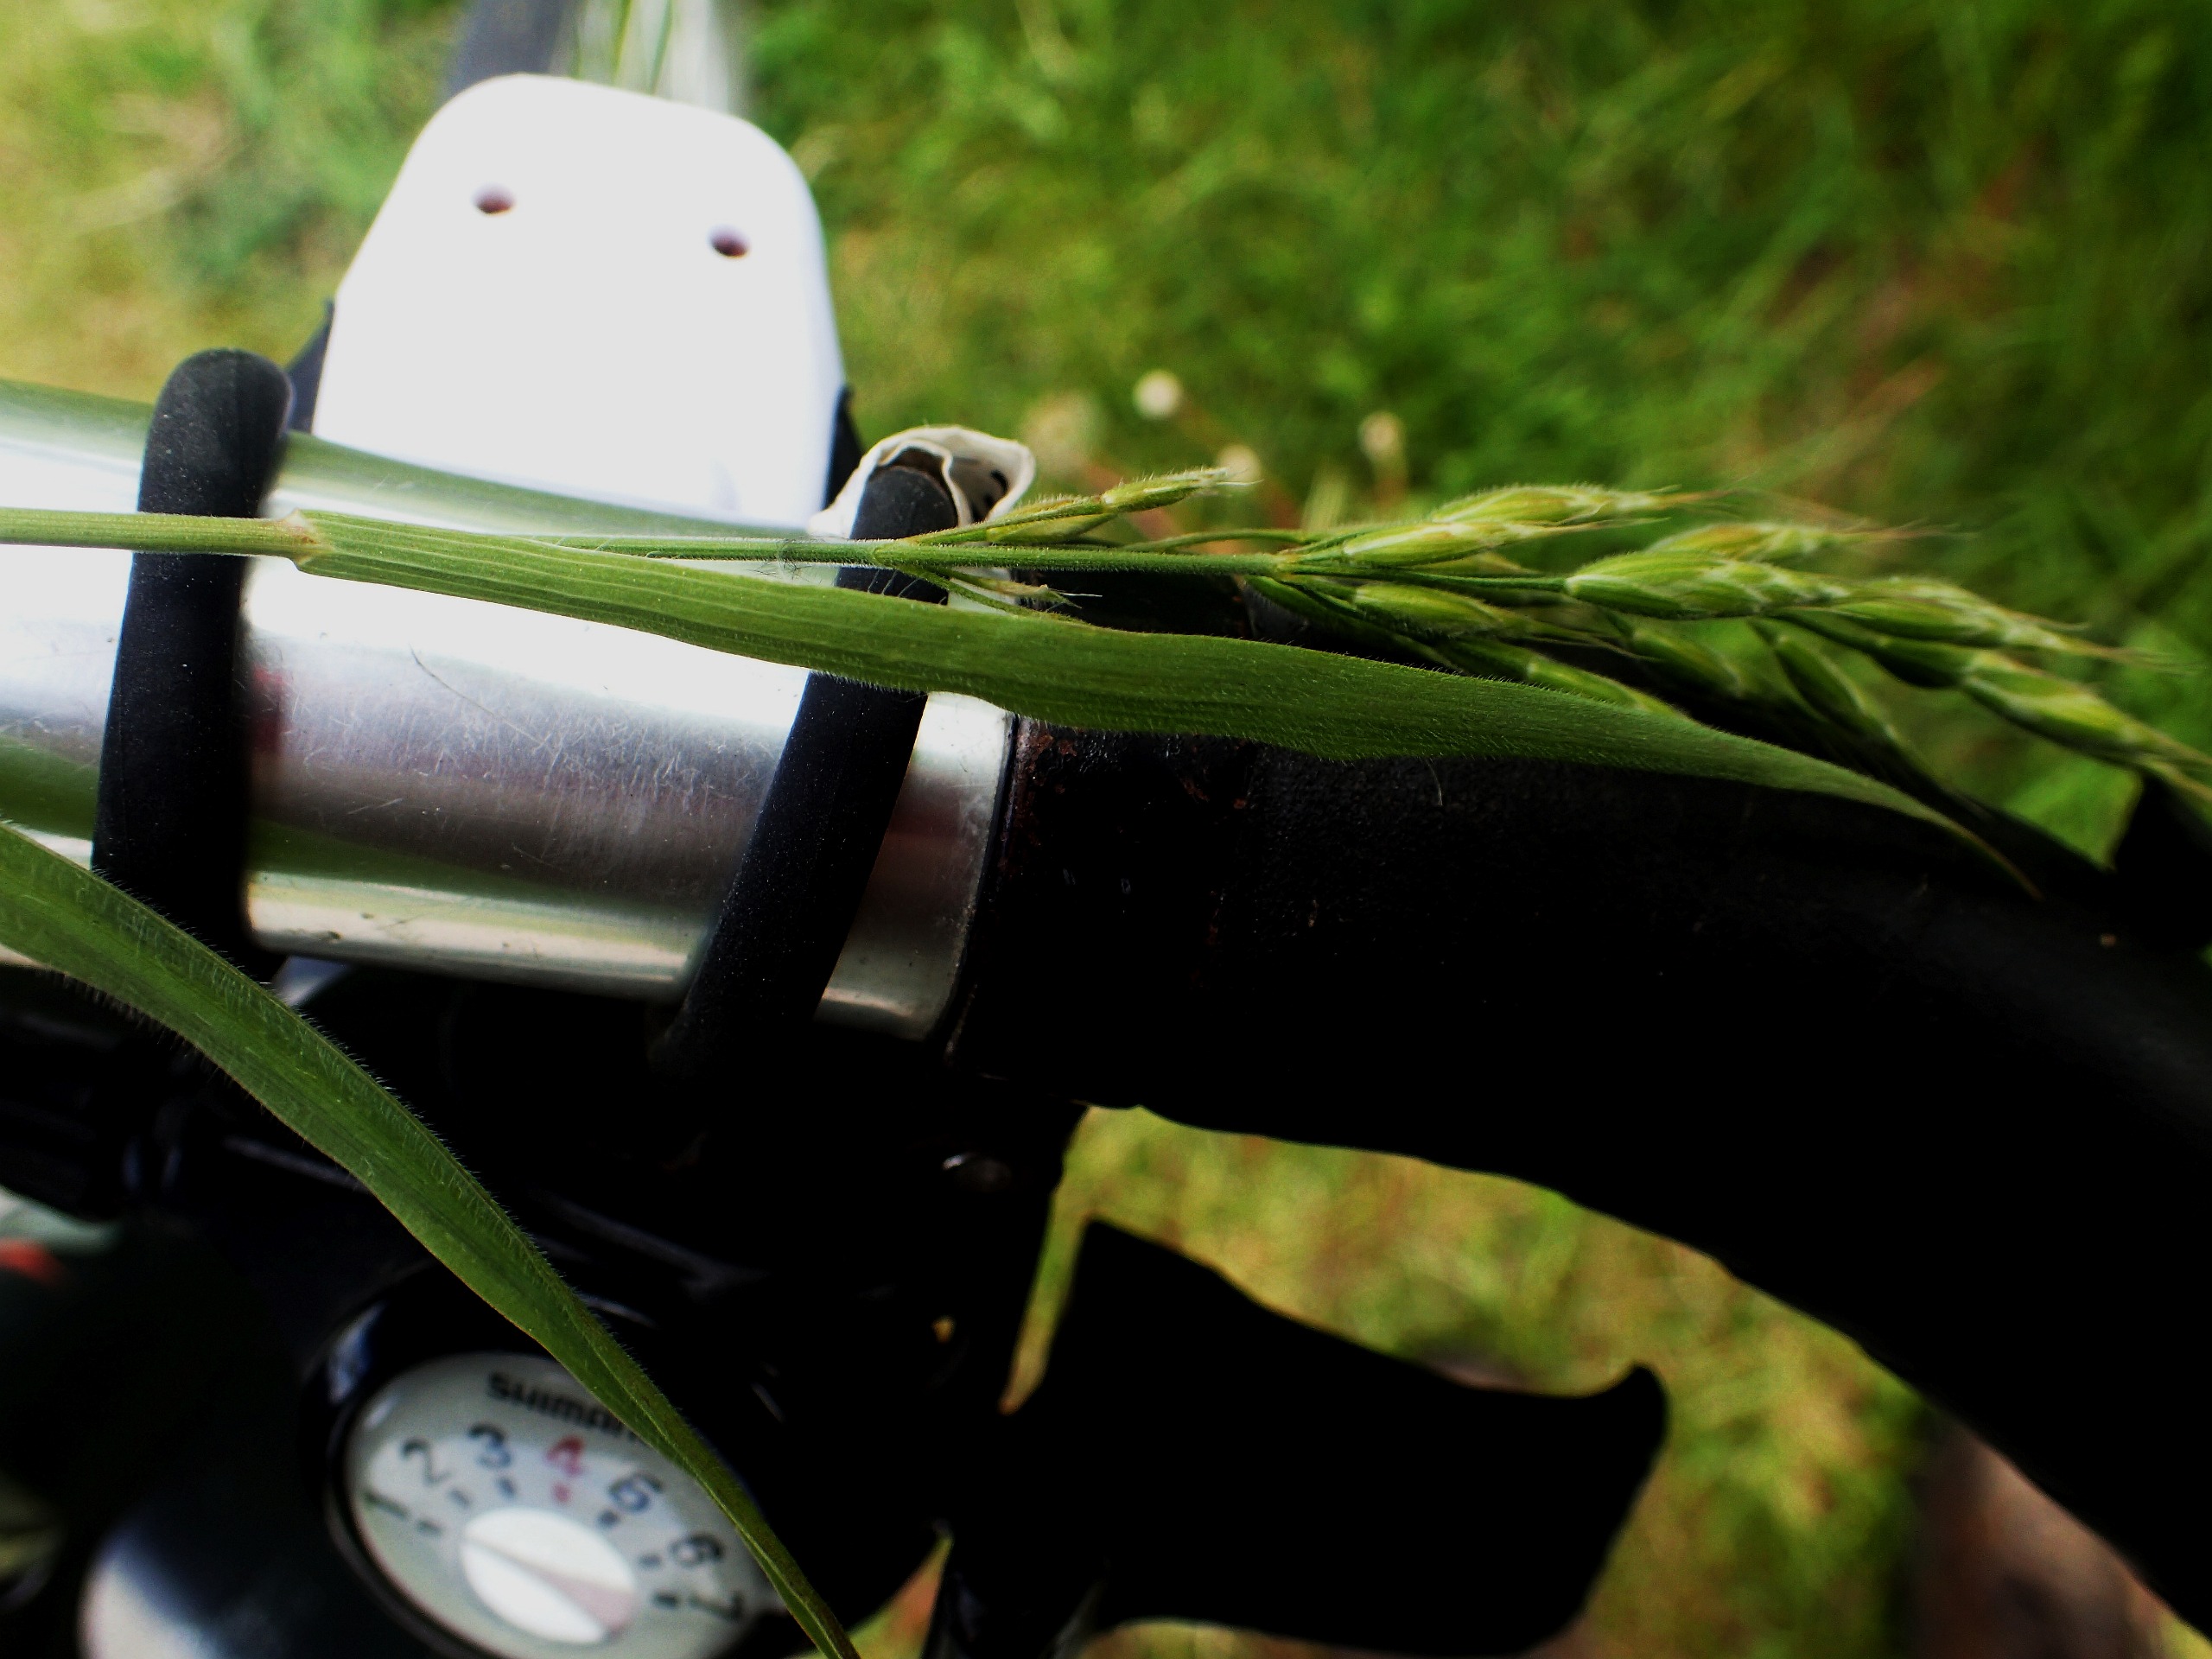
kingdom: Plantae
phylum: Tracheophyta
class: Liliopsida
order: Poales
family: Poaceae
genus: Bromus
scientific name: Bromus hordeaceus
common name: Blød hejre
